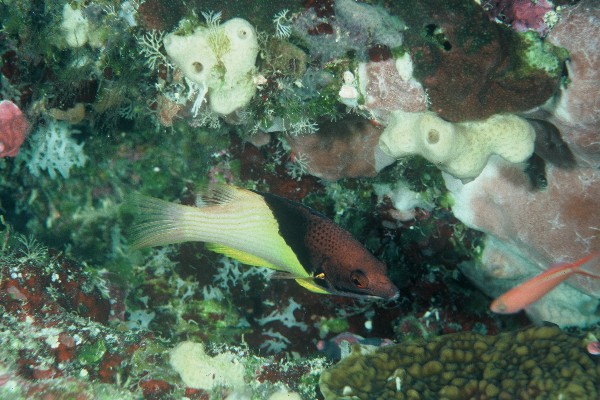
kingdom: Animalia
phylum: Chordata
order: Perciformes
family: Labridae
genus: Bodianus
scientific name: Bodianus mesothorax
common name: Coral hogfish
